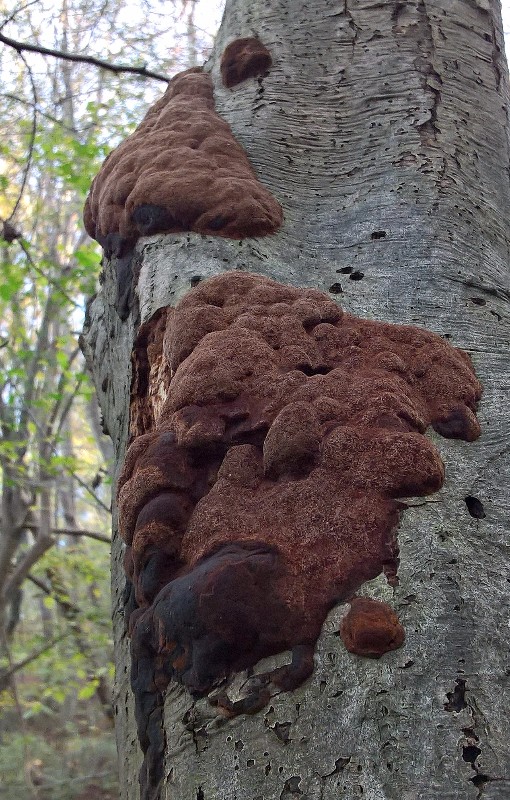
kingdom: Fungi
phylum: Basidiomycota
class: Agaricomycetes
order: Hymenochaetales
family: Hymenochaetaceae
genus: Fuscoporia
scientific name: Fuscoporia ferrea
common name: skorpe-ildporesvamp
